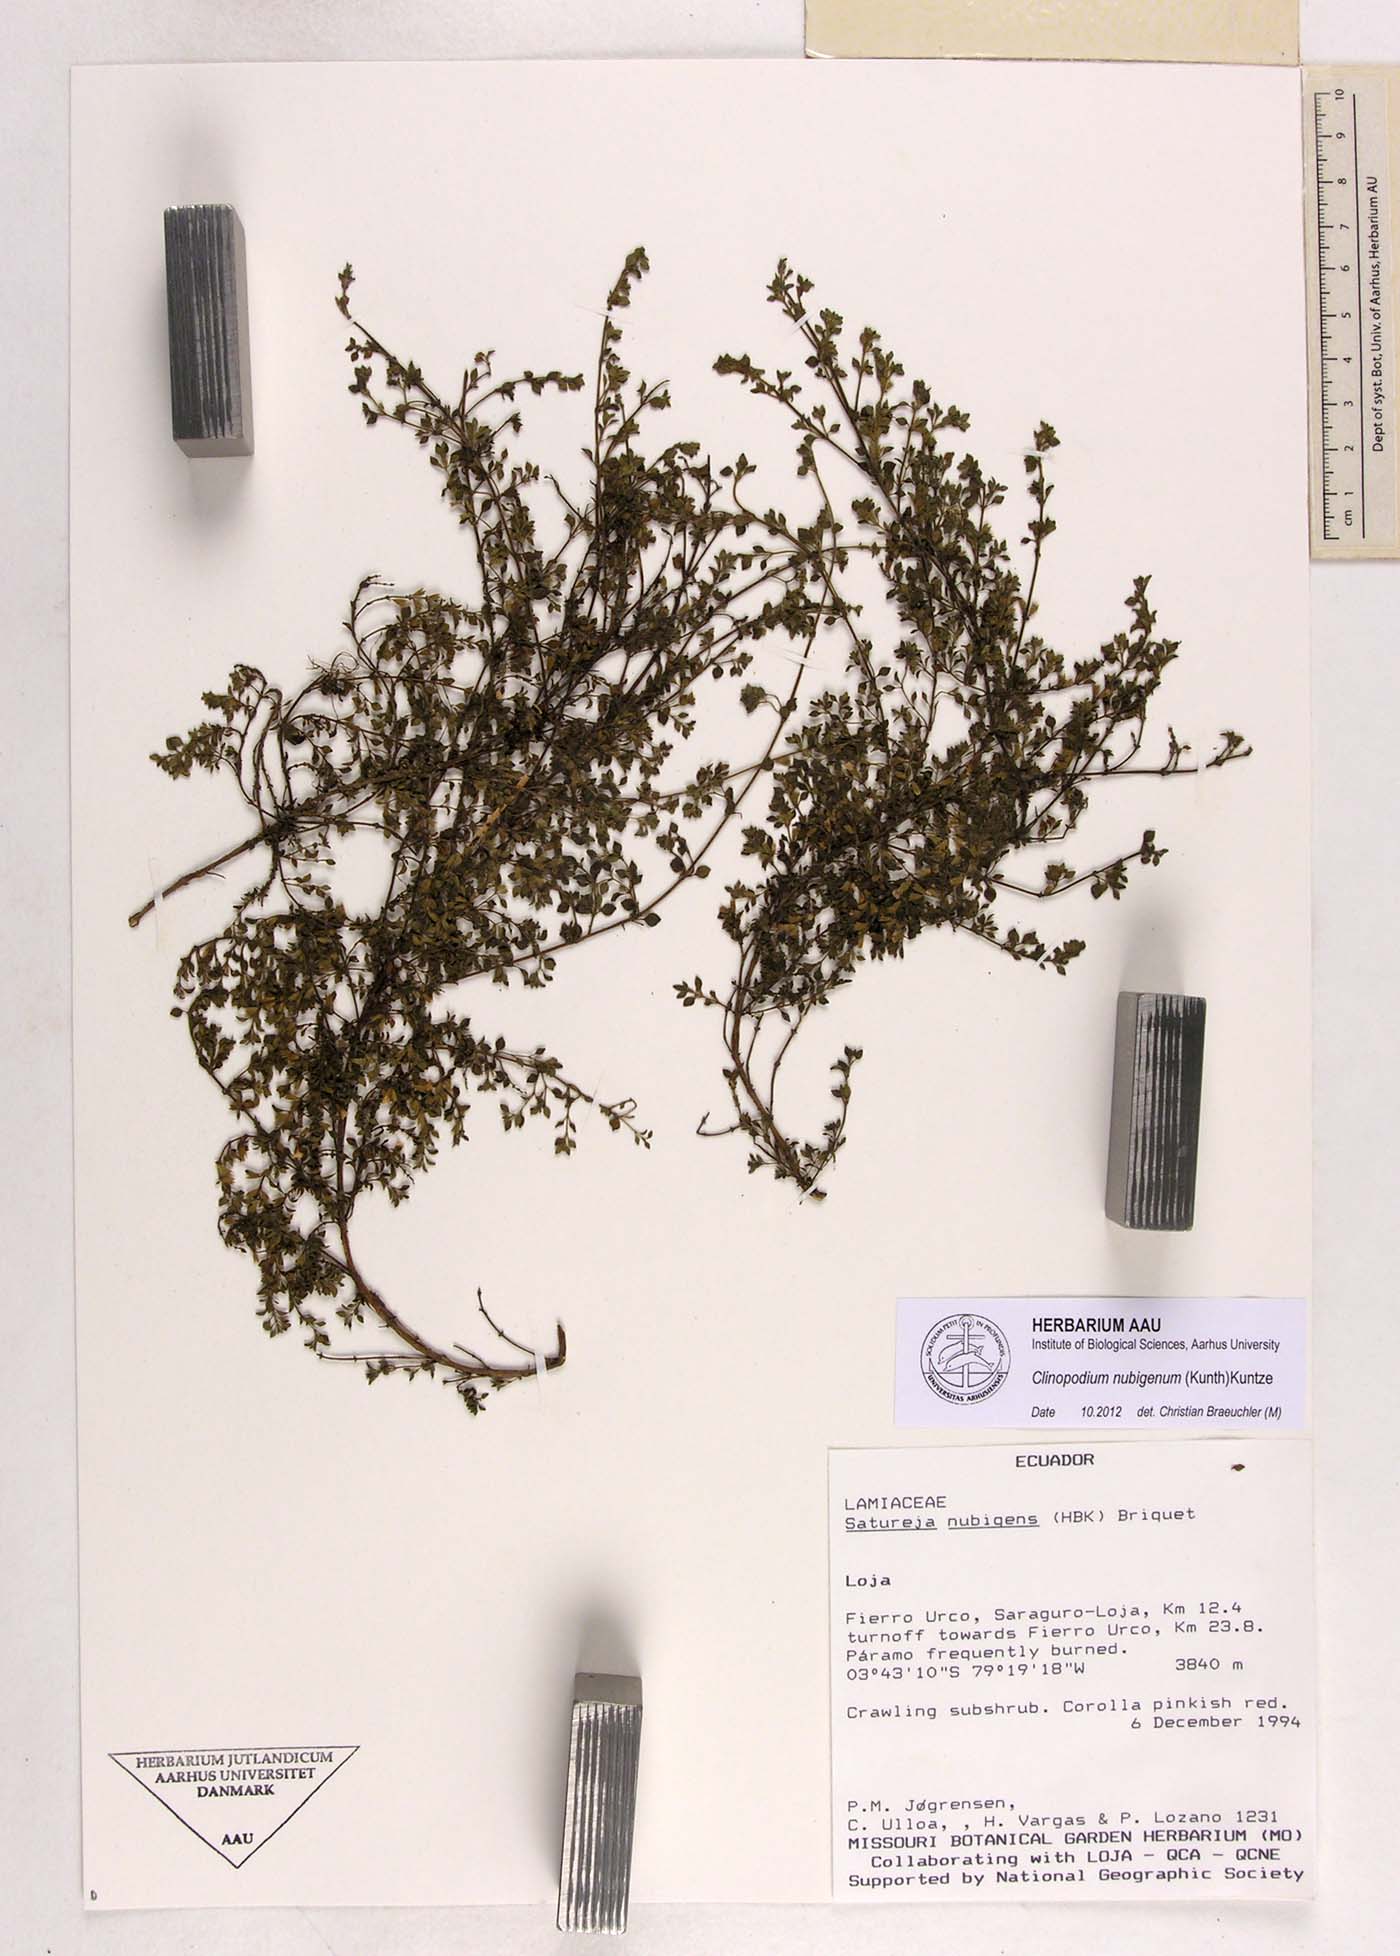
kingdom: Plantae
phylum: Tracheophyta
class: Magnoliopsida
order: Lamiales
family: Lamiaceae
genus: Clinopodium
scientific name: Clinopodium nubigenum
